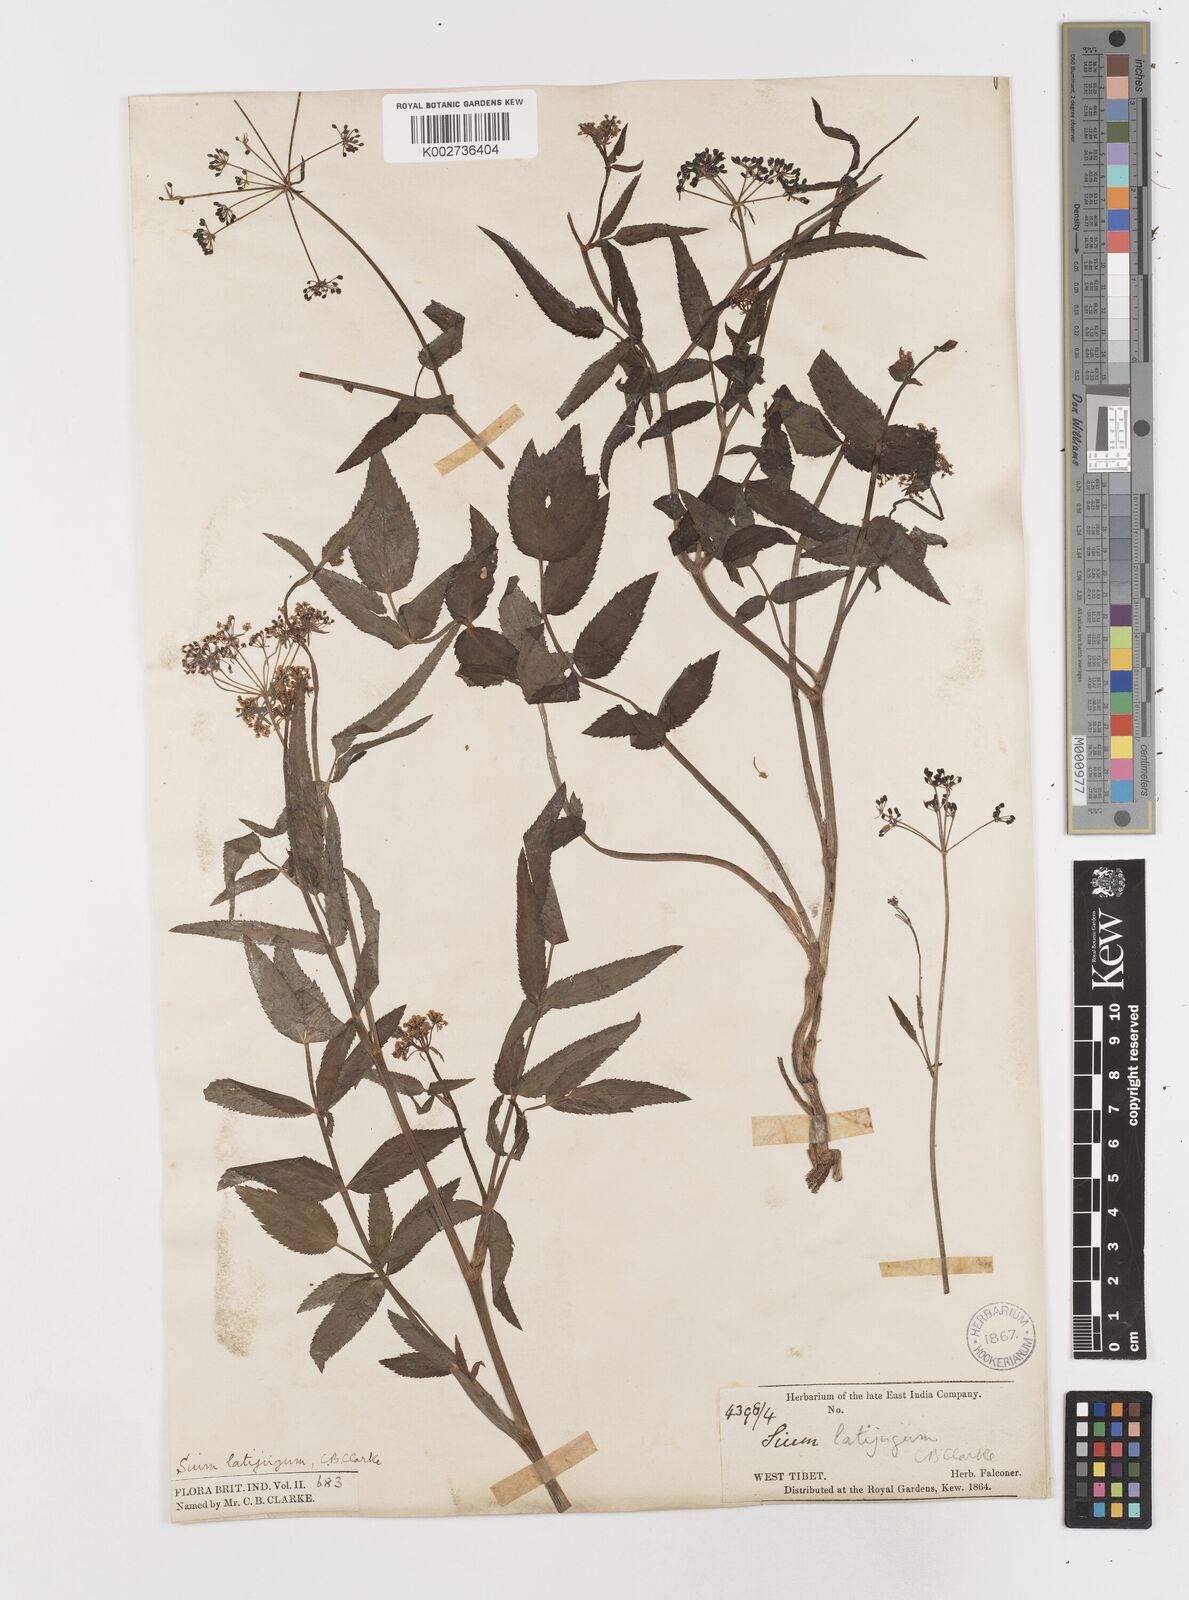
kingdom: Plantae
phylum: Tracheophyta
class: Magnoliopsida
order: Apiales
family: Apiaceae
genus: Sium
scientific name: Sium sisarum
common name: Skirret
